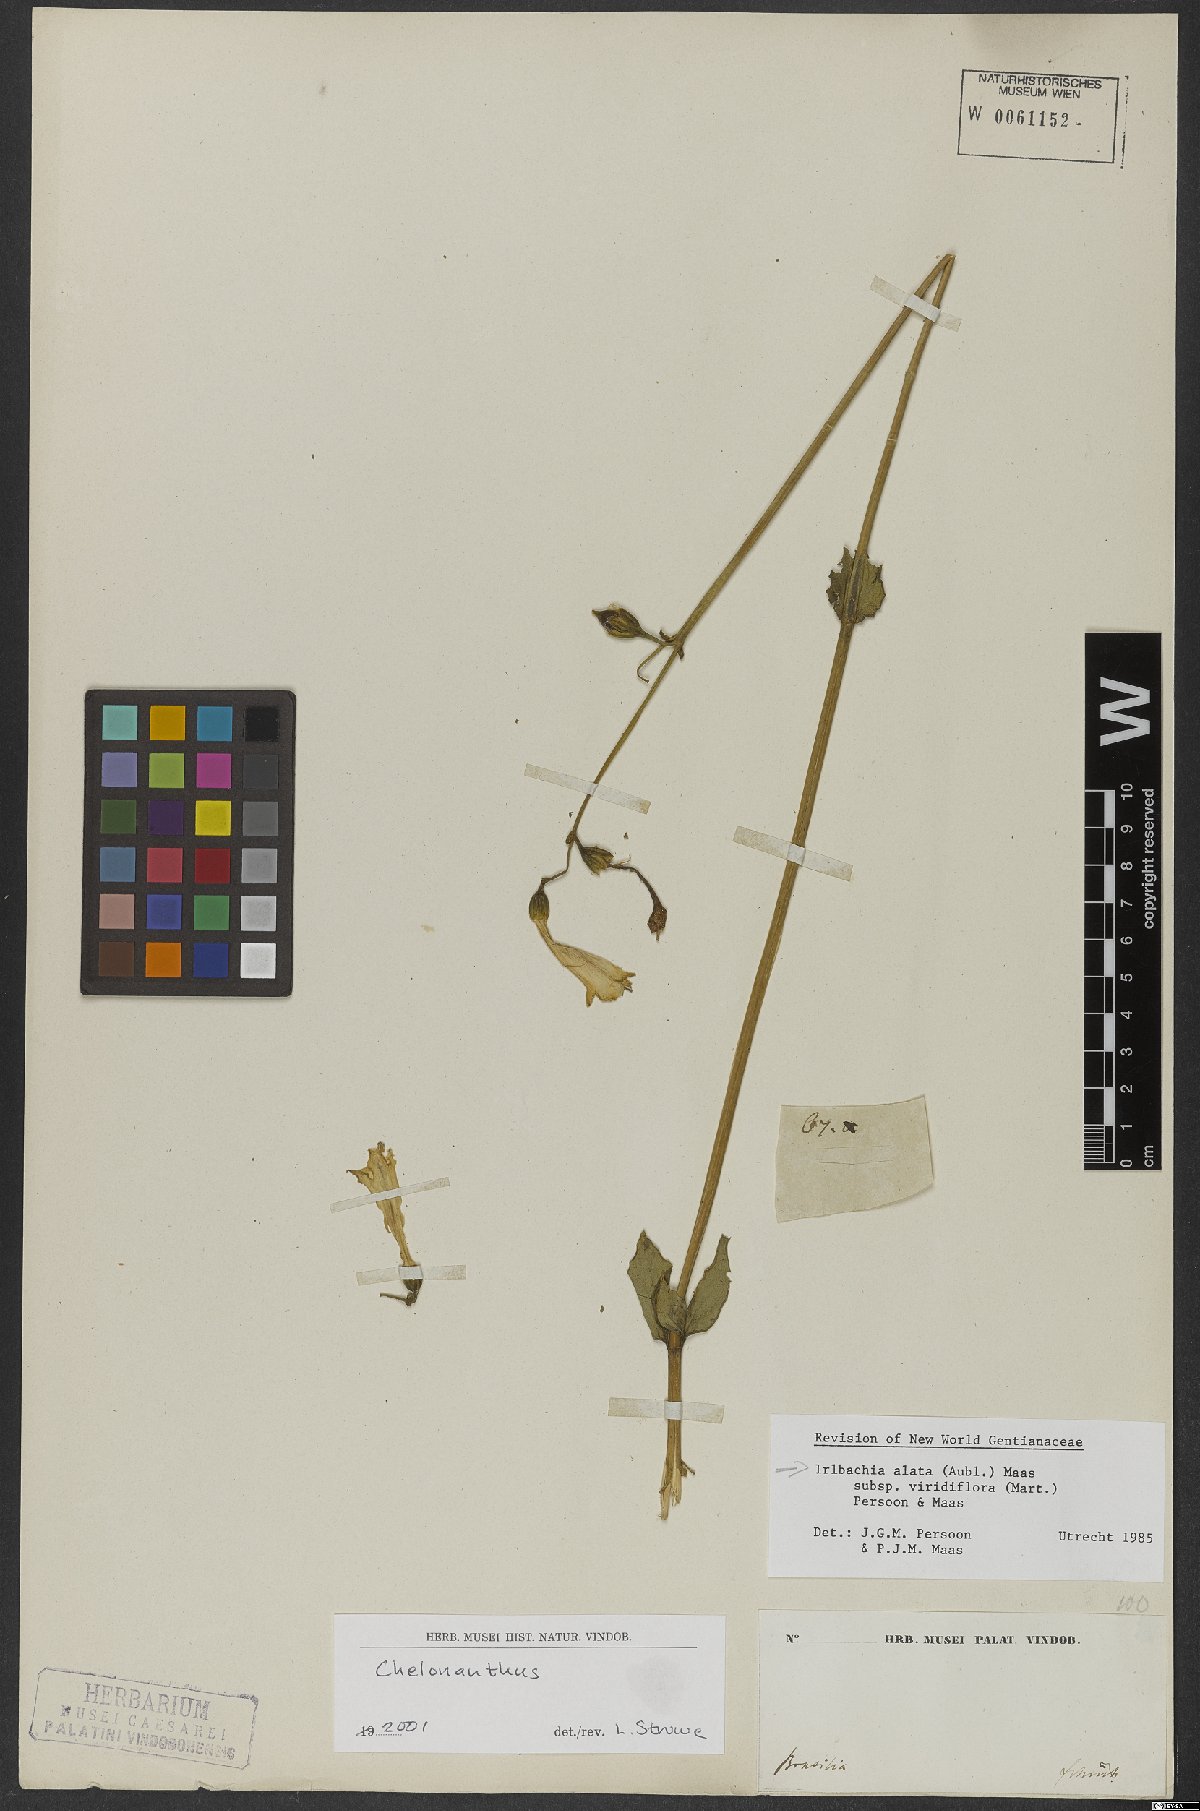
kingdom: Plantae
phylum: Tracheophyta
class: Magnoliopsida
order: Gentianales
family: Gentianaceae
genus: Chelonanthus
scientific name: Chelonanthus viridiflorus
